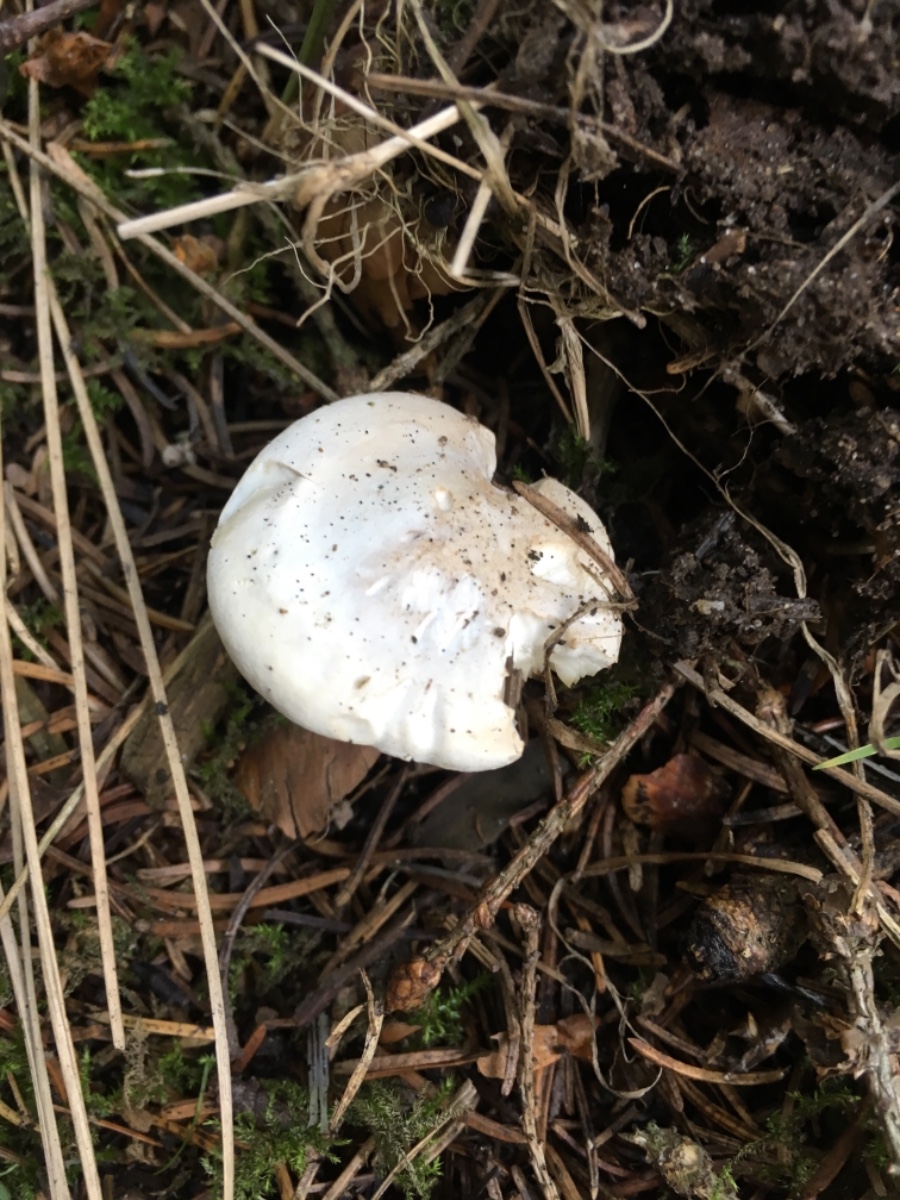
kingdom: Fungi
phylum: Basidiomycota
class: Agaricomycetes
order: Agaricales
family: Entolomataceae
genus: Clitopilus
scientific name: Clitopilus prunulus
